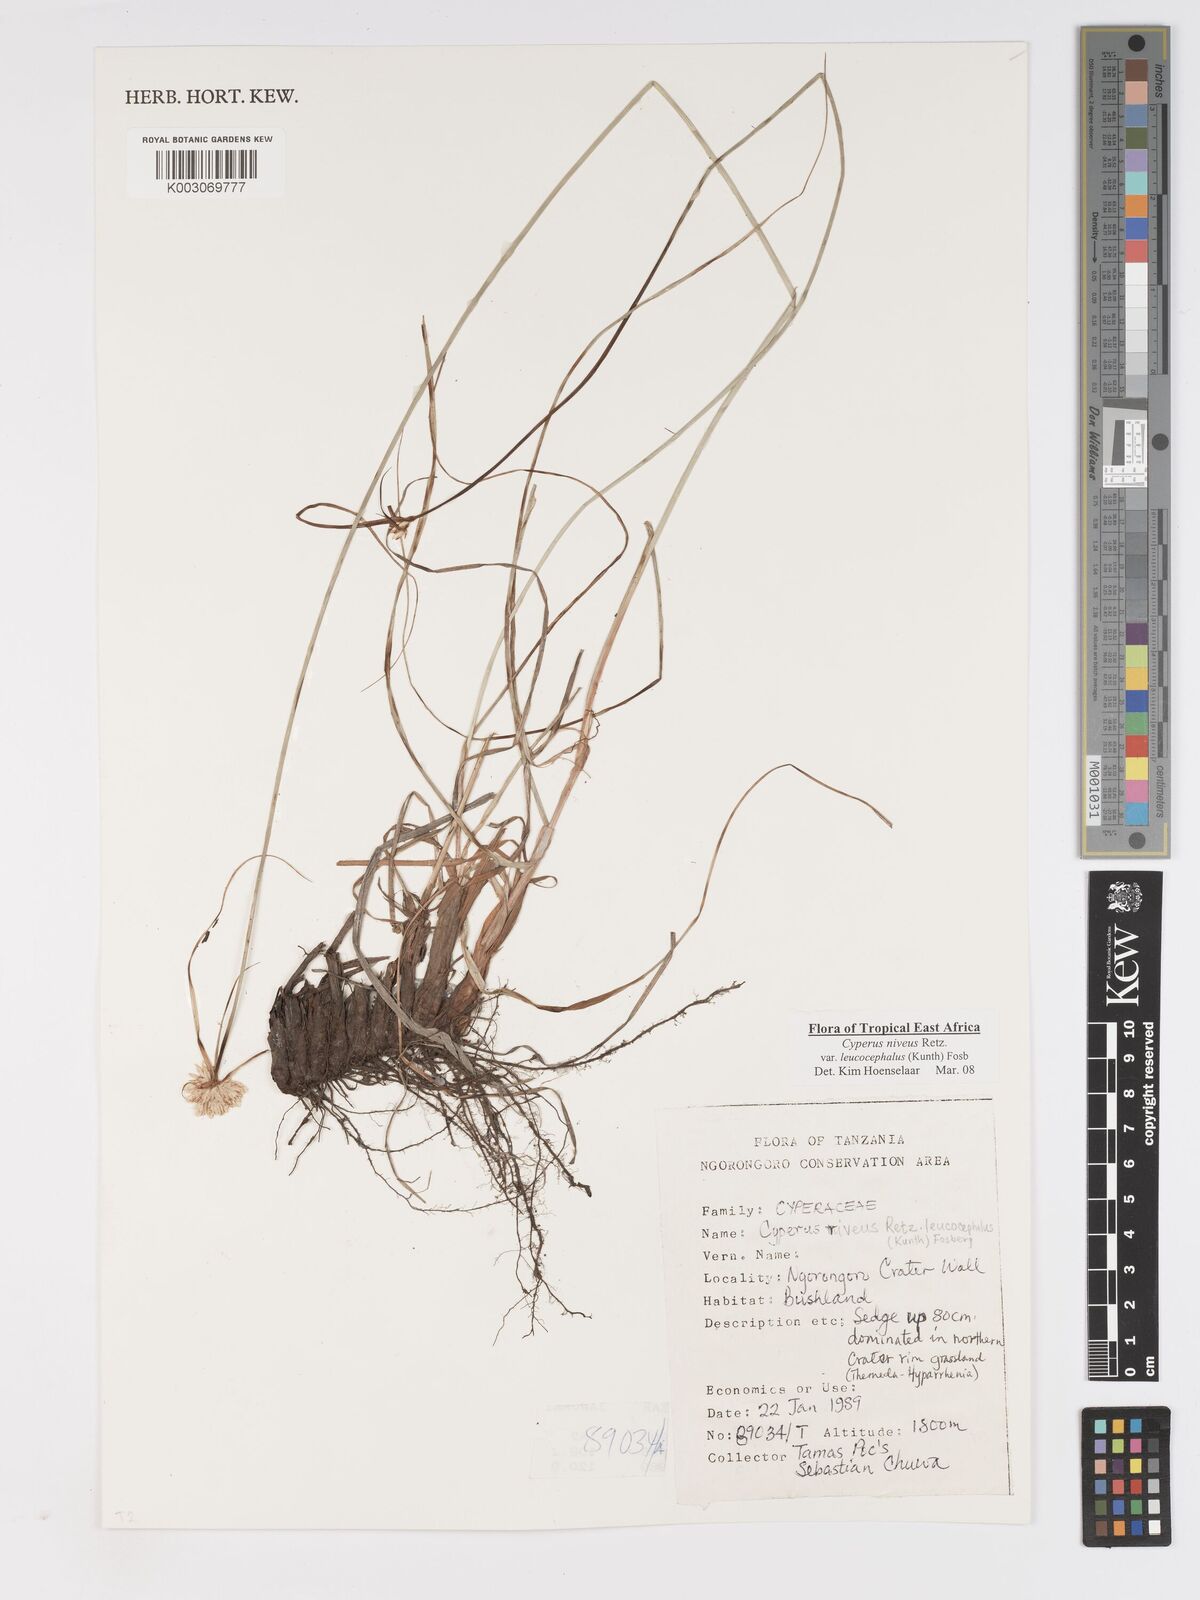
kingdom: Plantae
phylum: Tracheophyta
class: Liliopsida
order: Poales
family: Cyperaceae
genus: Cyperus
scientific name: Cyperus niveus
